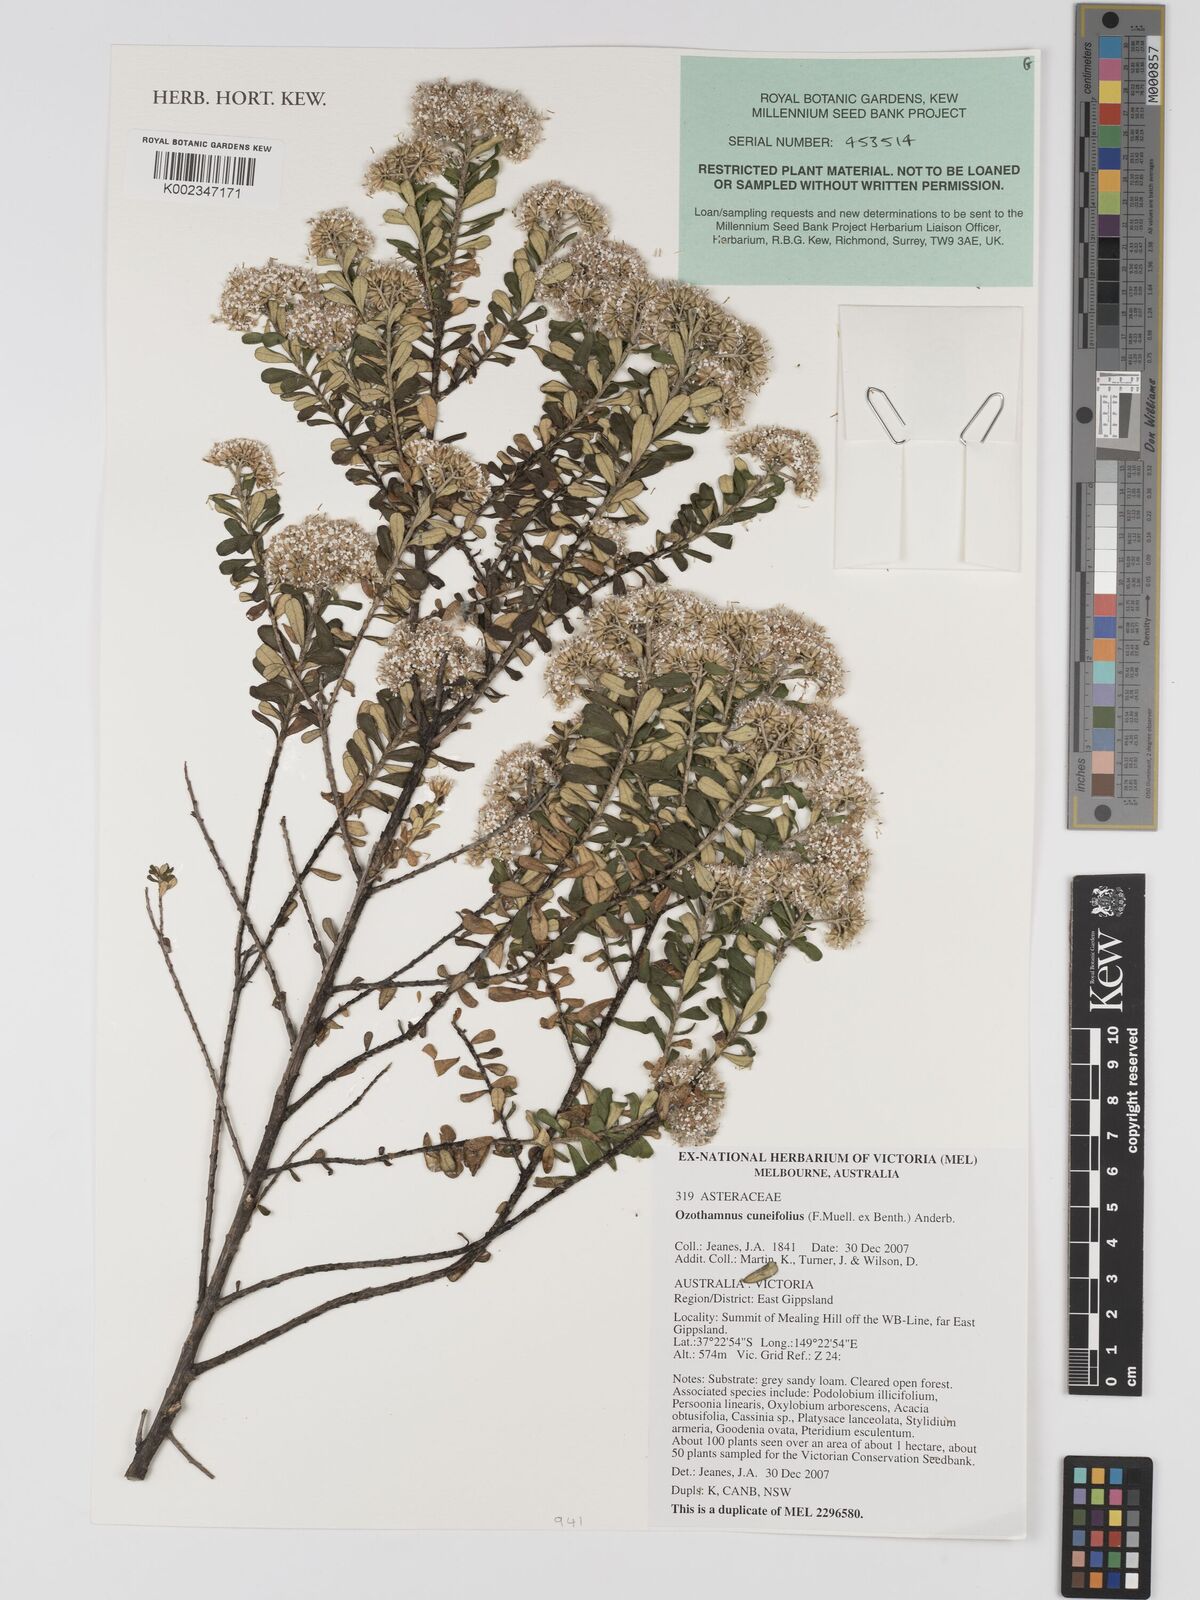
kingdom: Plantae
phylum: Tracheophyta
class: Magnoliopsida
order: Asterales
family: Asteraceae
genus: Ozothamnus
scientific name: Ozothamnus cuneifolius
